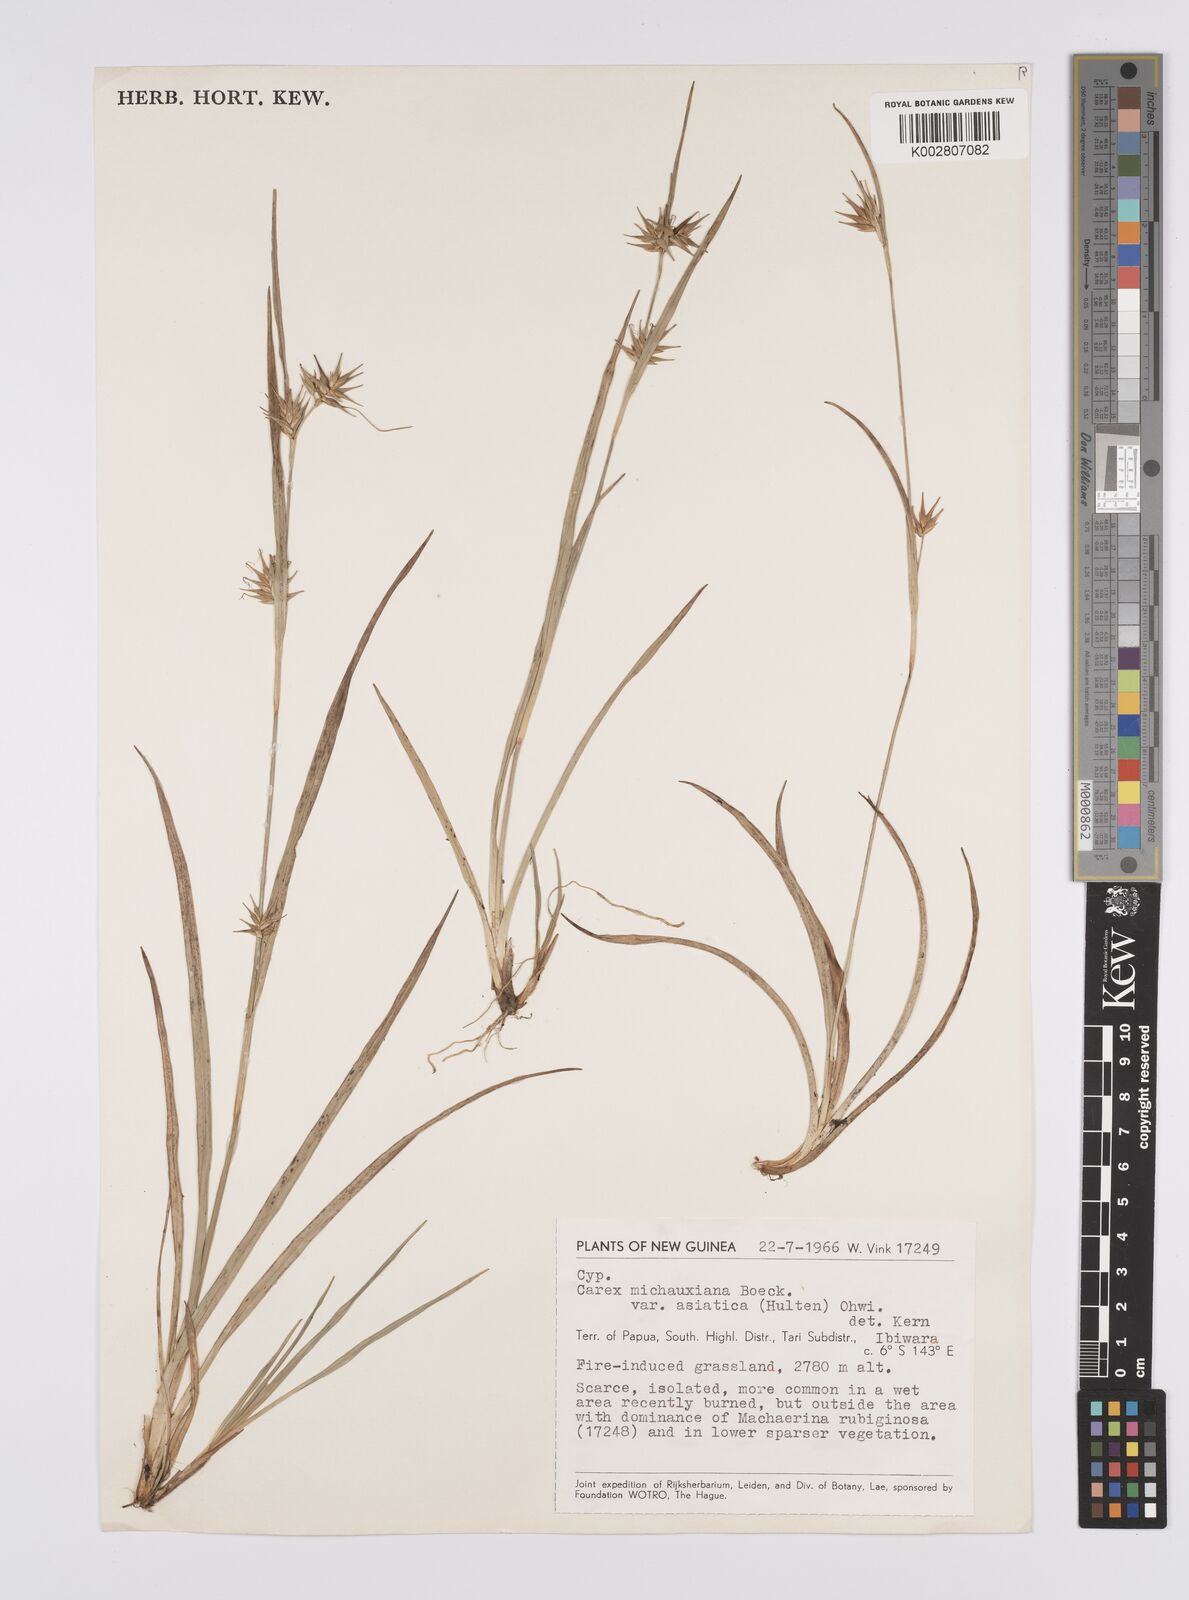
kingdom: Plantae
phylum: Tracheophyta
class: Liliopsida
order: Poales
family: Cyperaceae
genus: Carex
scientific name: Carex michauxiana
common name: Michaux's sedge
